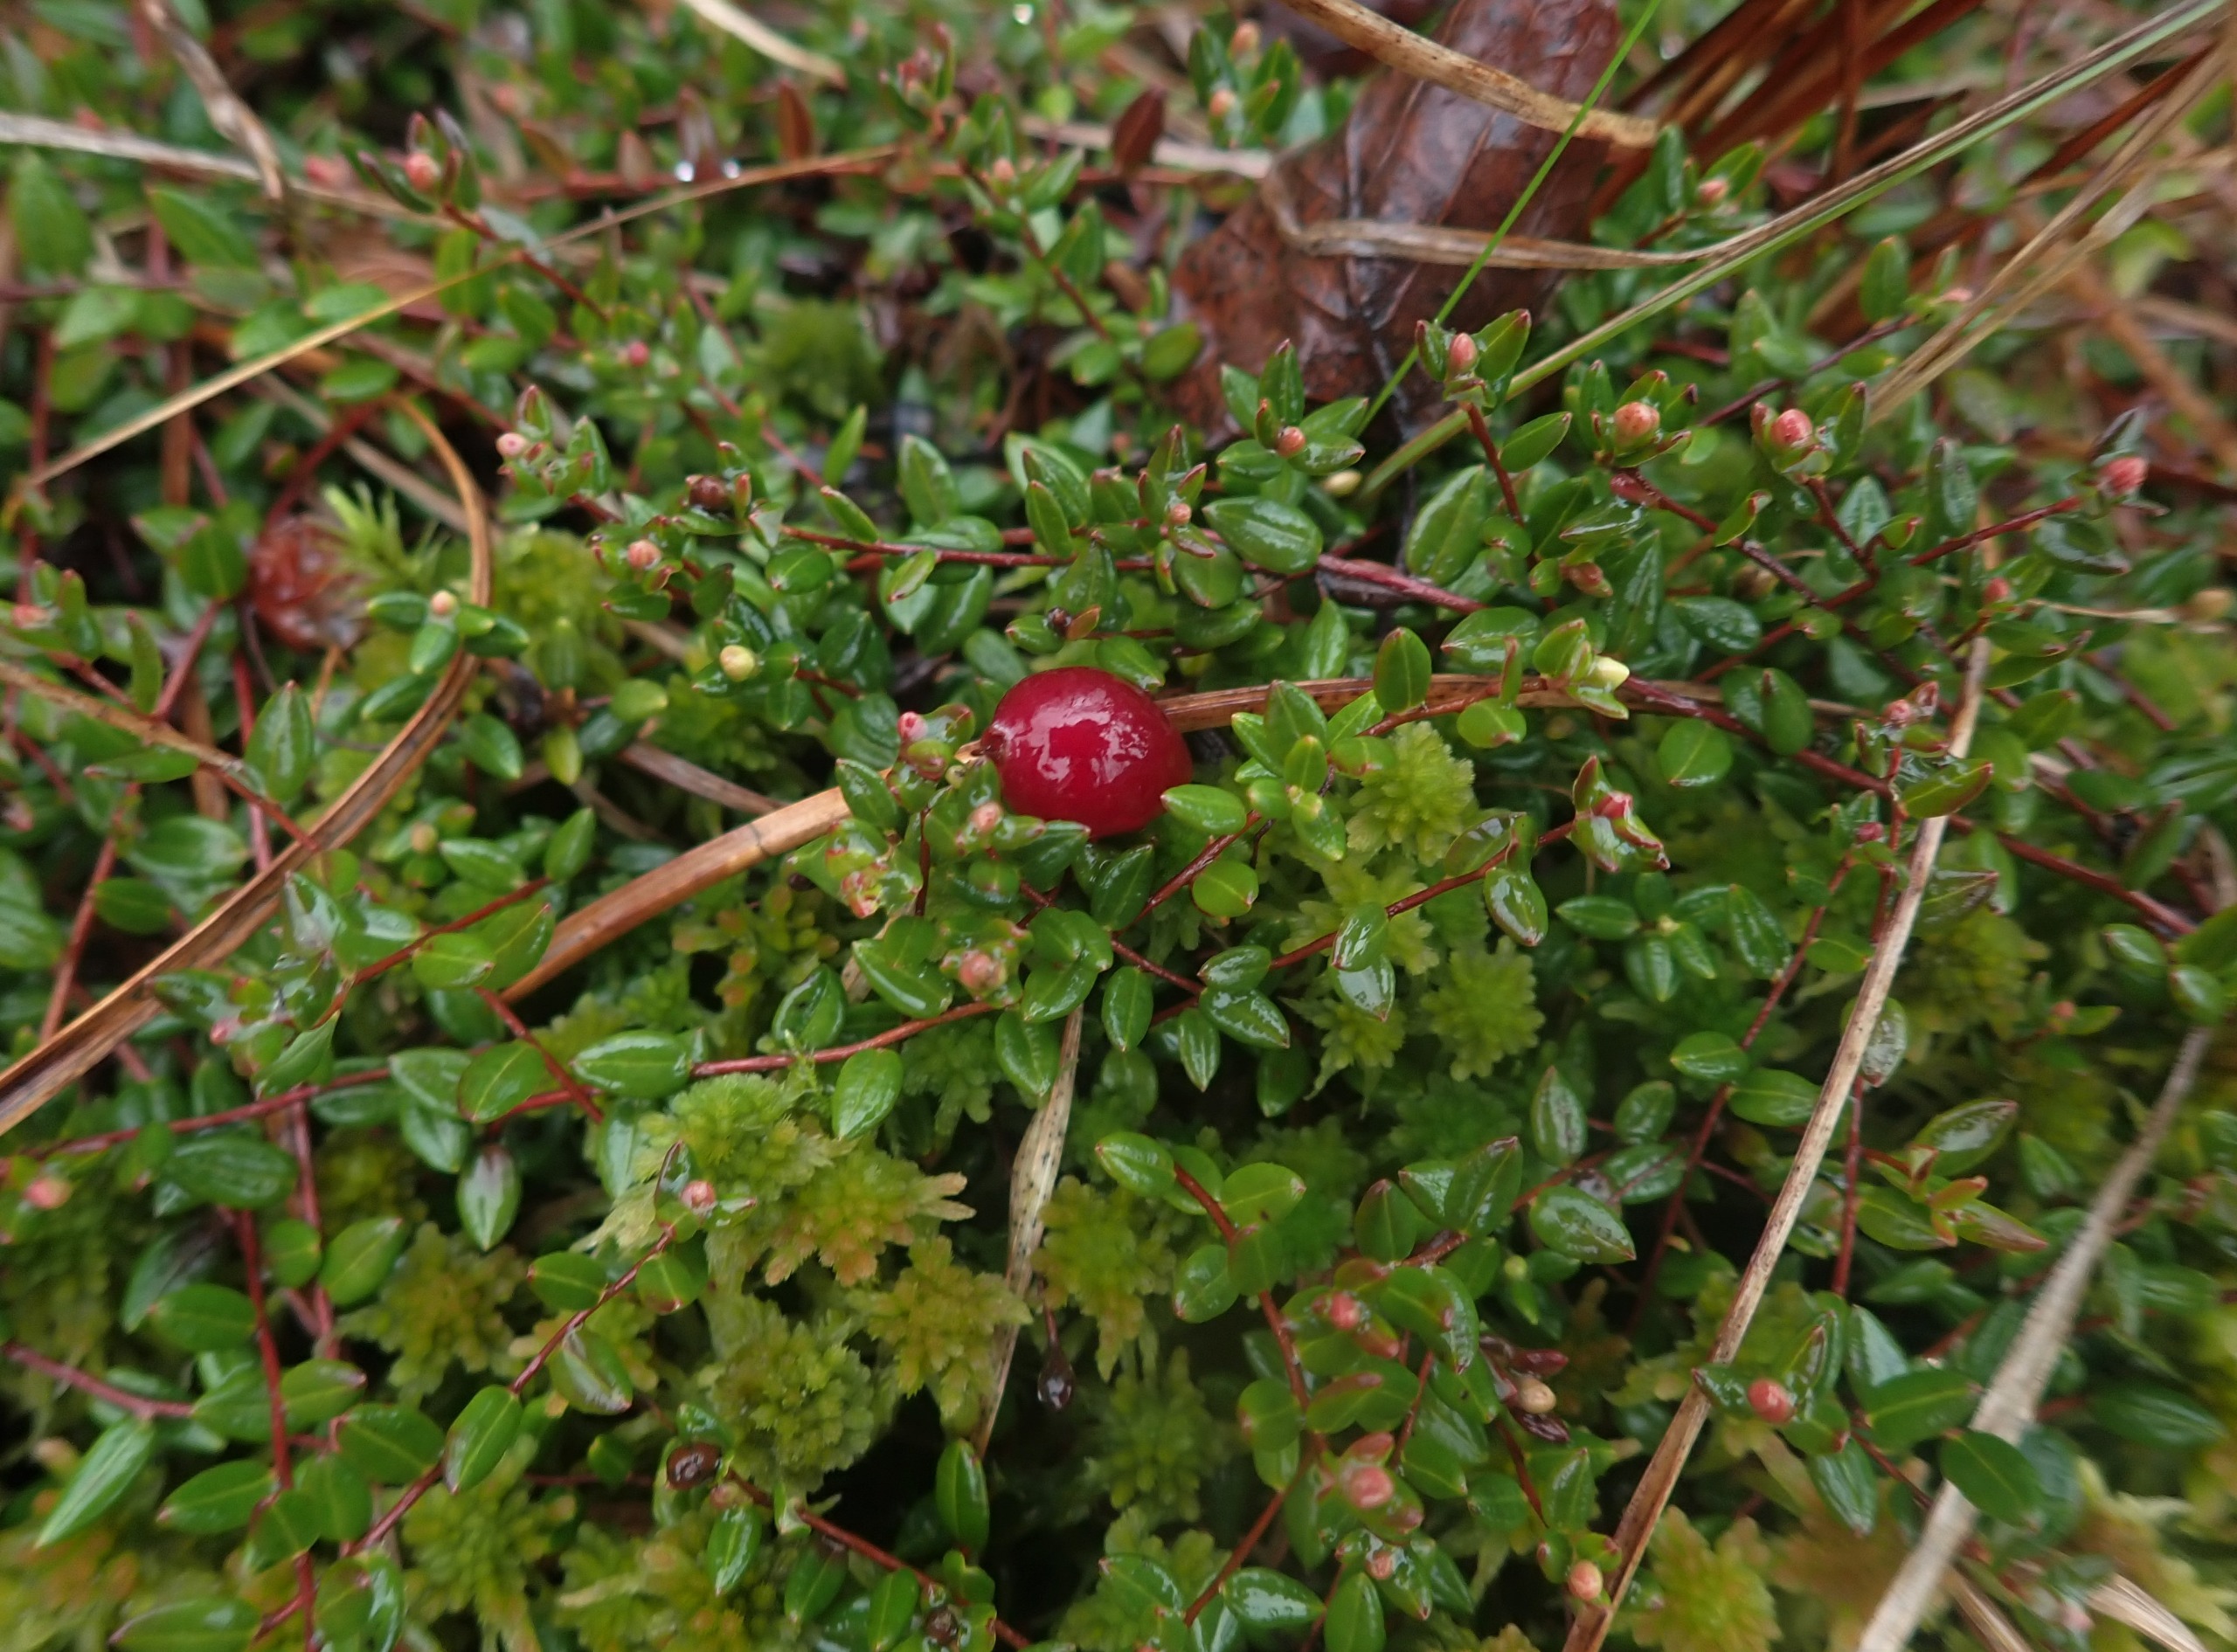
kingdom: Plantae
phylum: Tracheophyta
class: Magnoliopsida
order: Ericales
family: Ericaceae
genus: Vaccinium
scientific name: Vaccinium oxycoccos
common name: Tranebær
